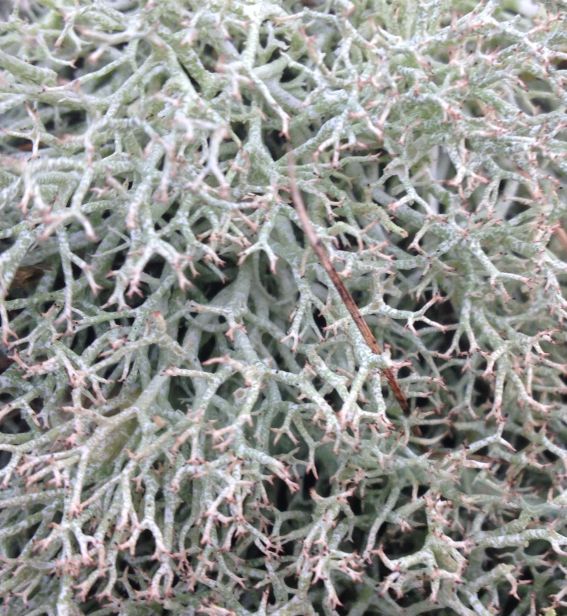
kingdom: Fungi
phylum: Ascomycota
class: Lecanoromycetes
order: Lecanorales
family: Cladoniaceae
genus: Cladonia
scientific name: Cladonia rangiformis
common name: spættet bægerlav
